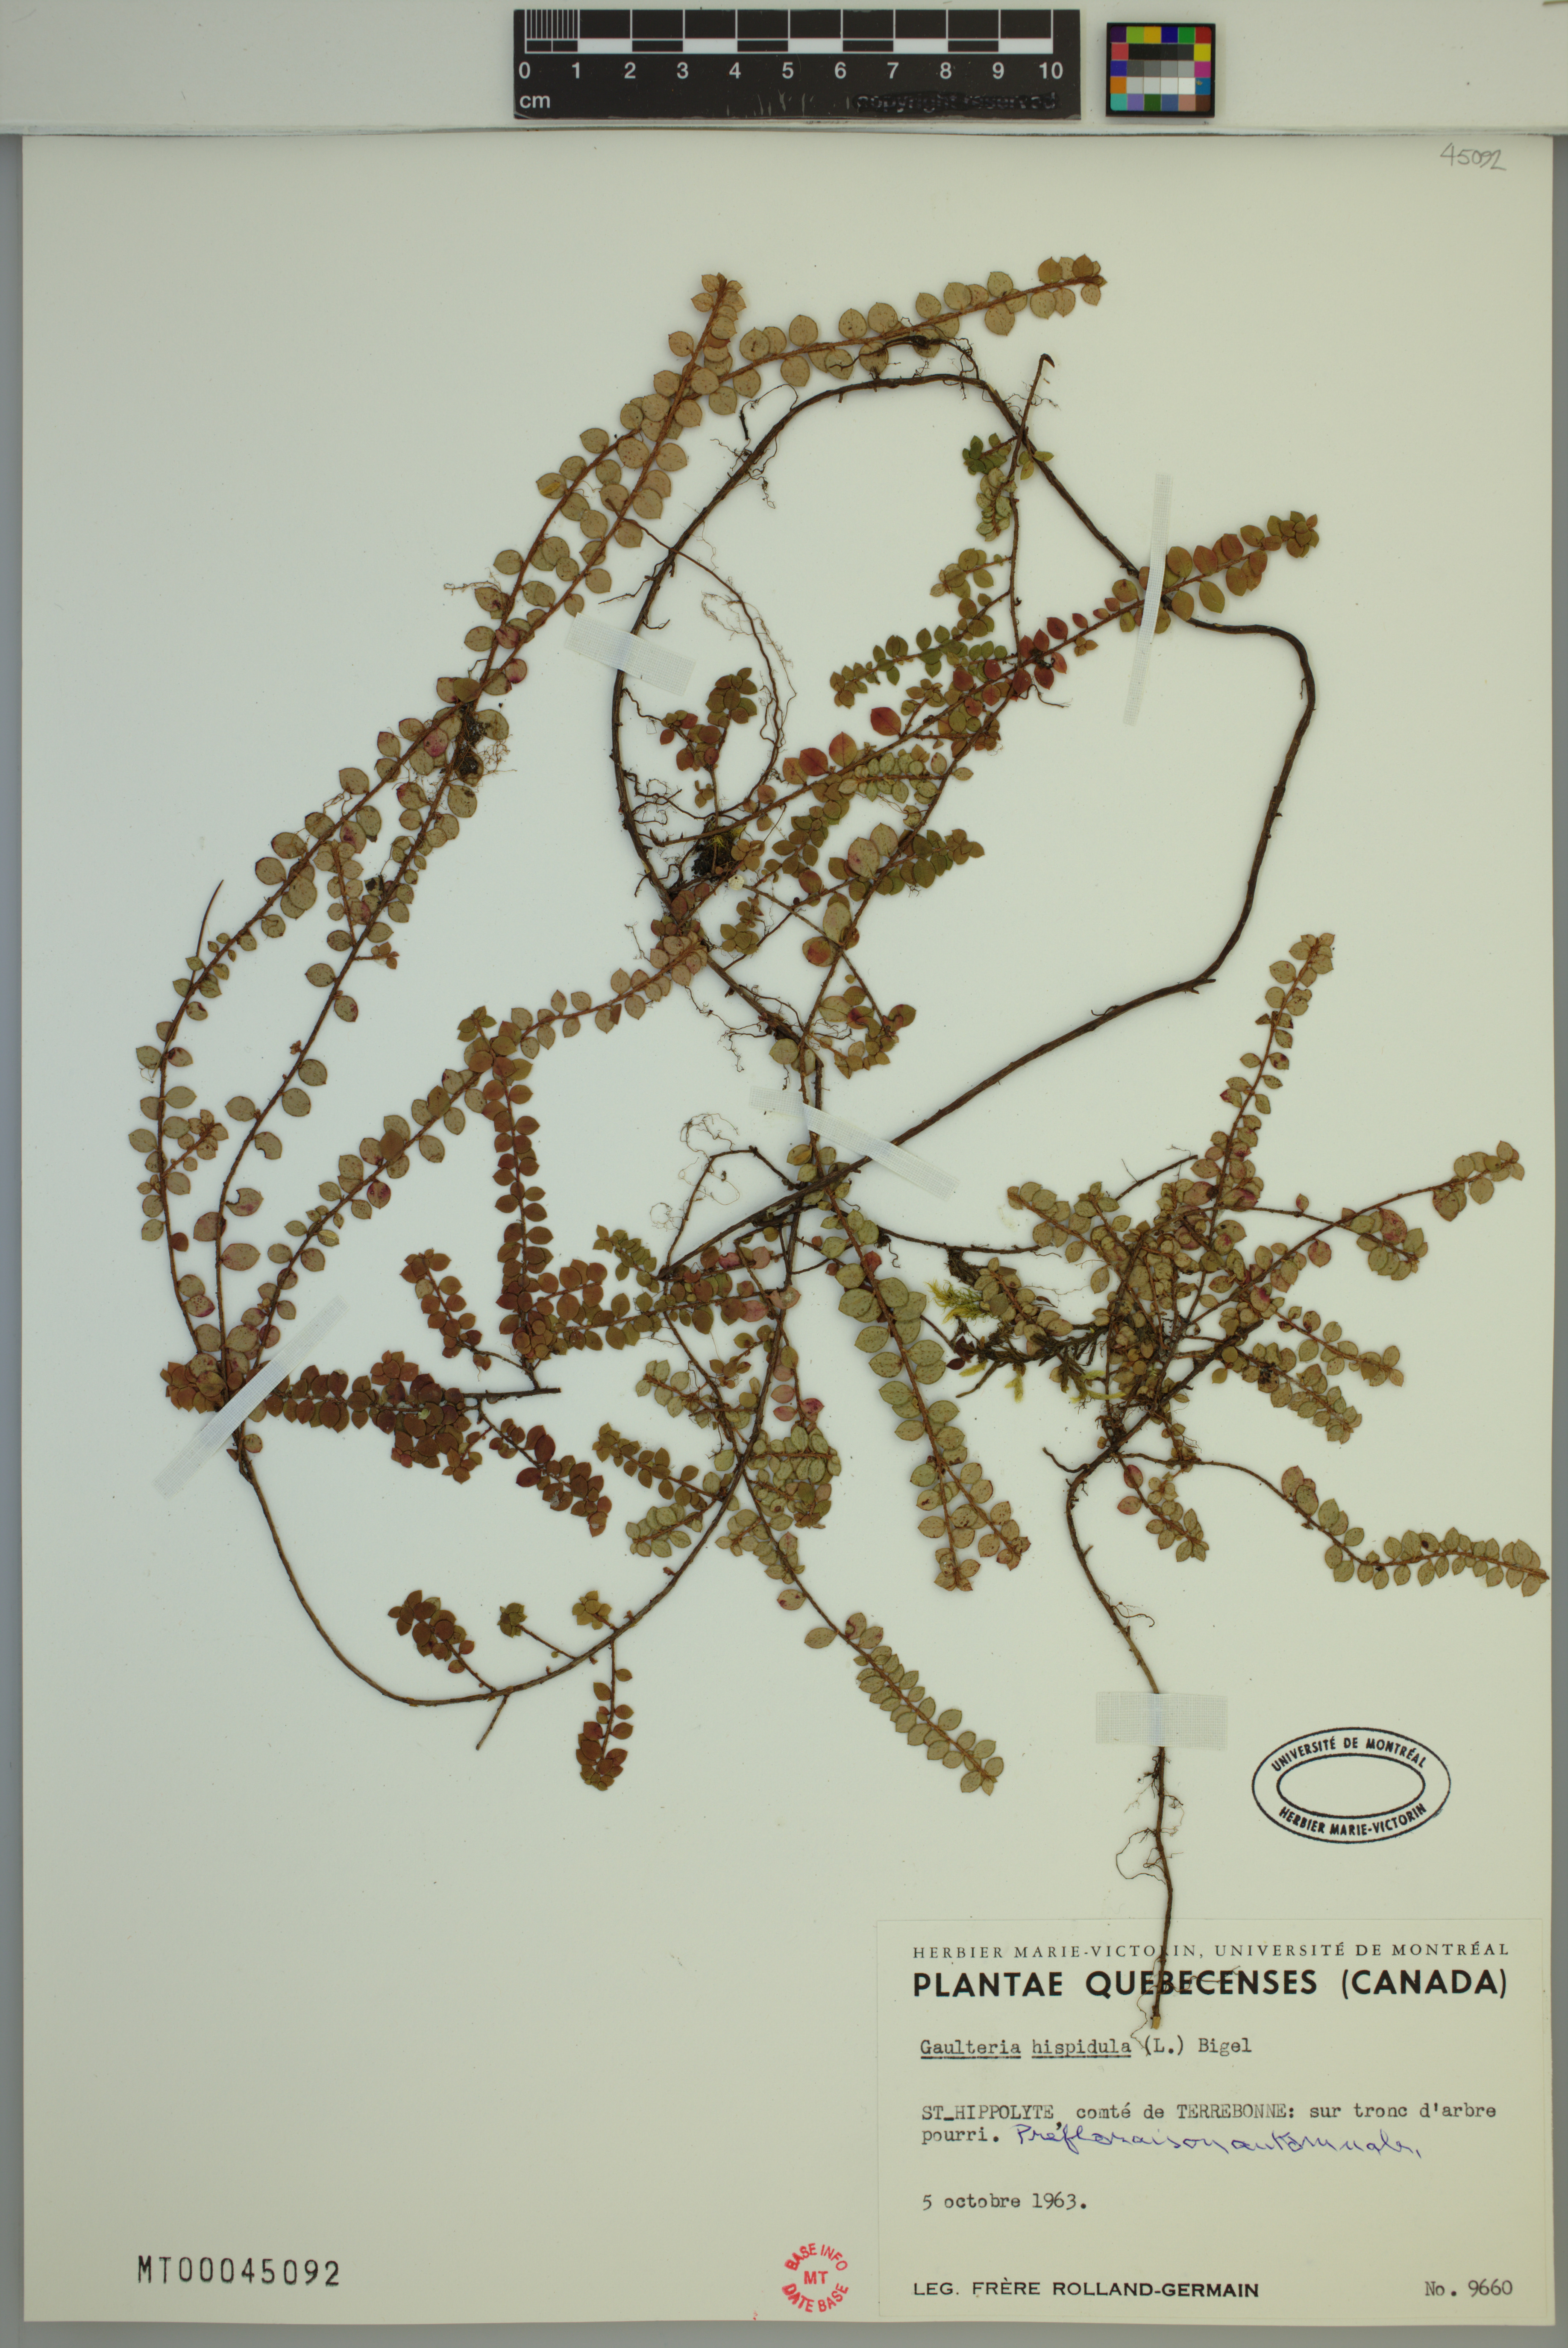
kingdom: Plantae
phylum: Tracheophyta
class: Magnoliopsida
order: Ericales
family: Ericaceae
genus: Gaultheria
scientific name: Gaultheria hispidula
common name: Cancer wintergreen
